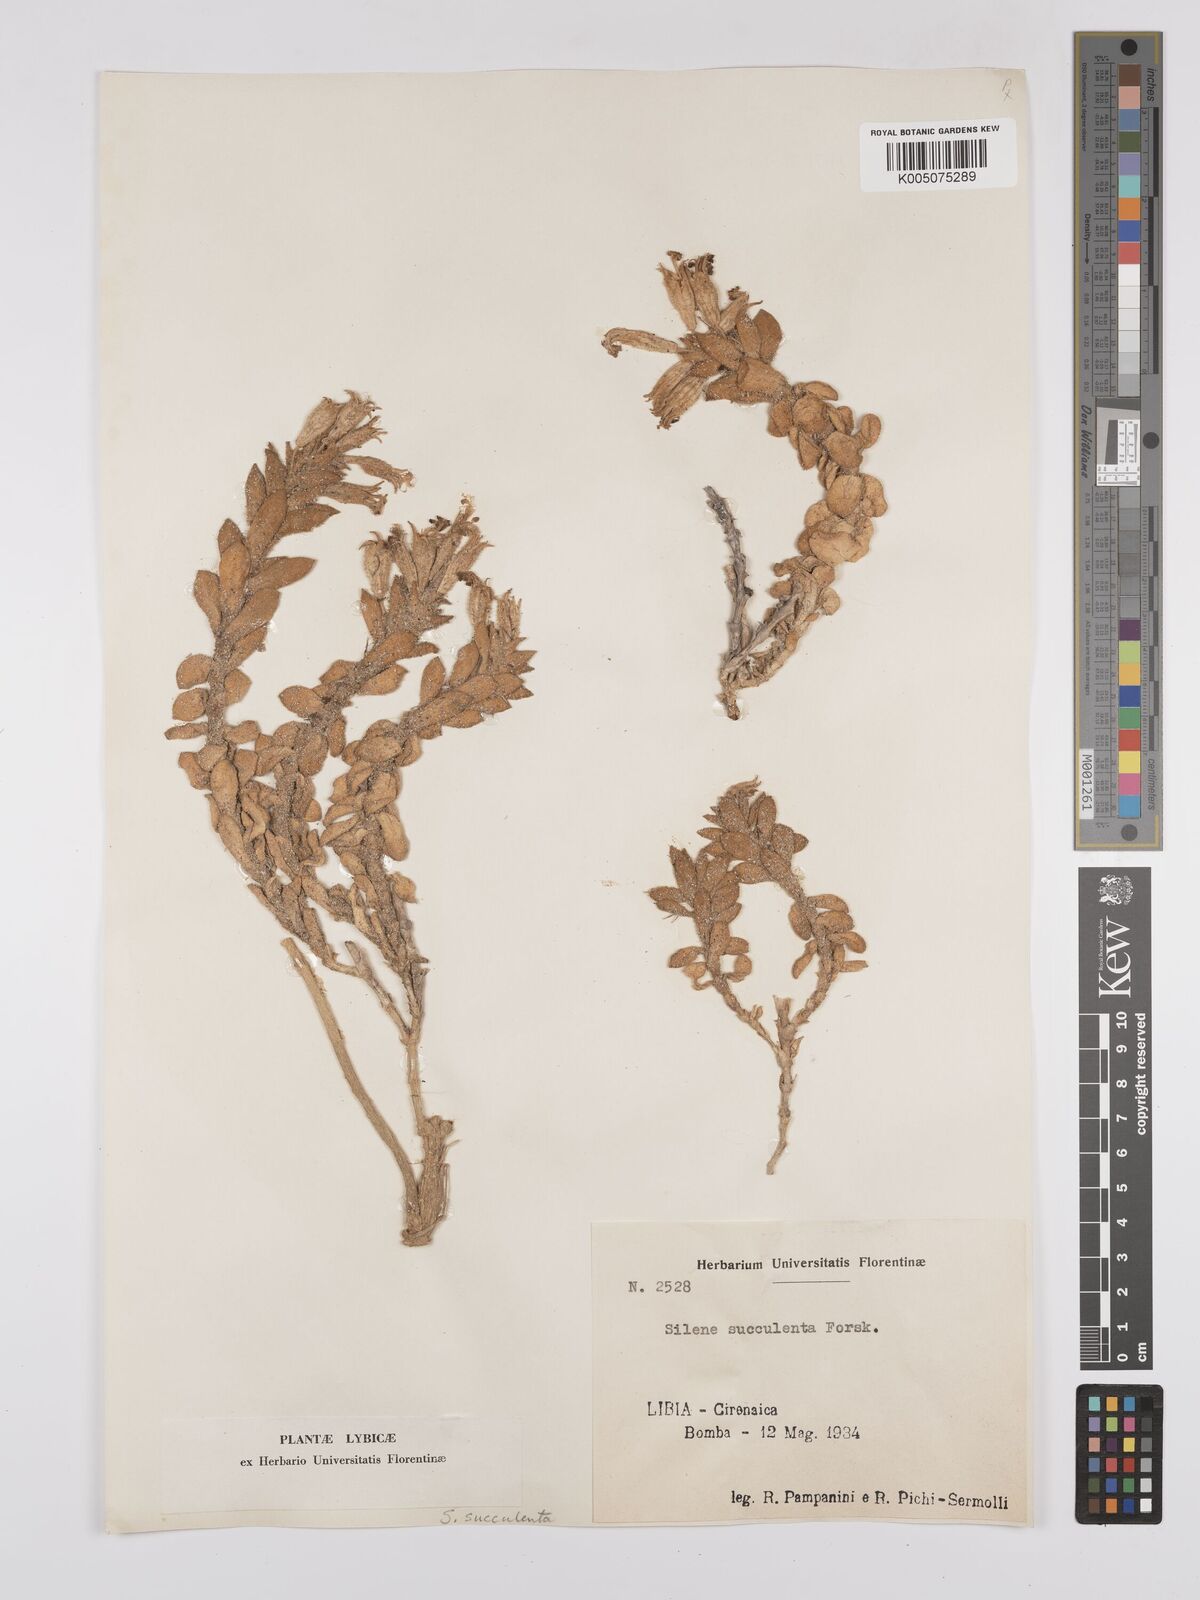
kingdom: Plantae
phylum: Tracheophyta
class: Magnoliopsida
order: Caryophyllales
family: Caryophyllaceae
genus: Silene
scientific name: Silene succulenta
